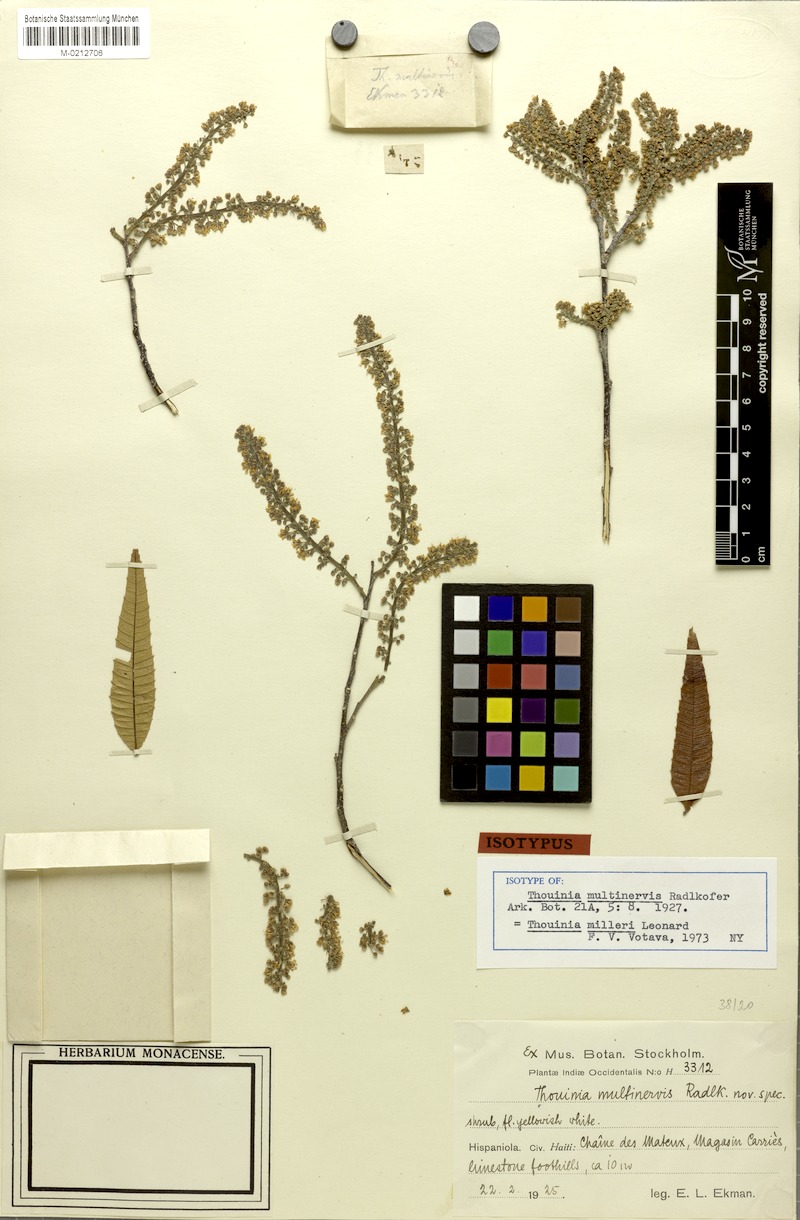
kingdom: Plantae
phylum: Tracheophyta
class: Magnoliopsida
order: Sapindales
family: Sapindaceae
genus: Thouinia
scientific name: Thouinia milleri
